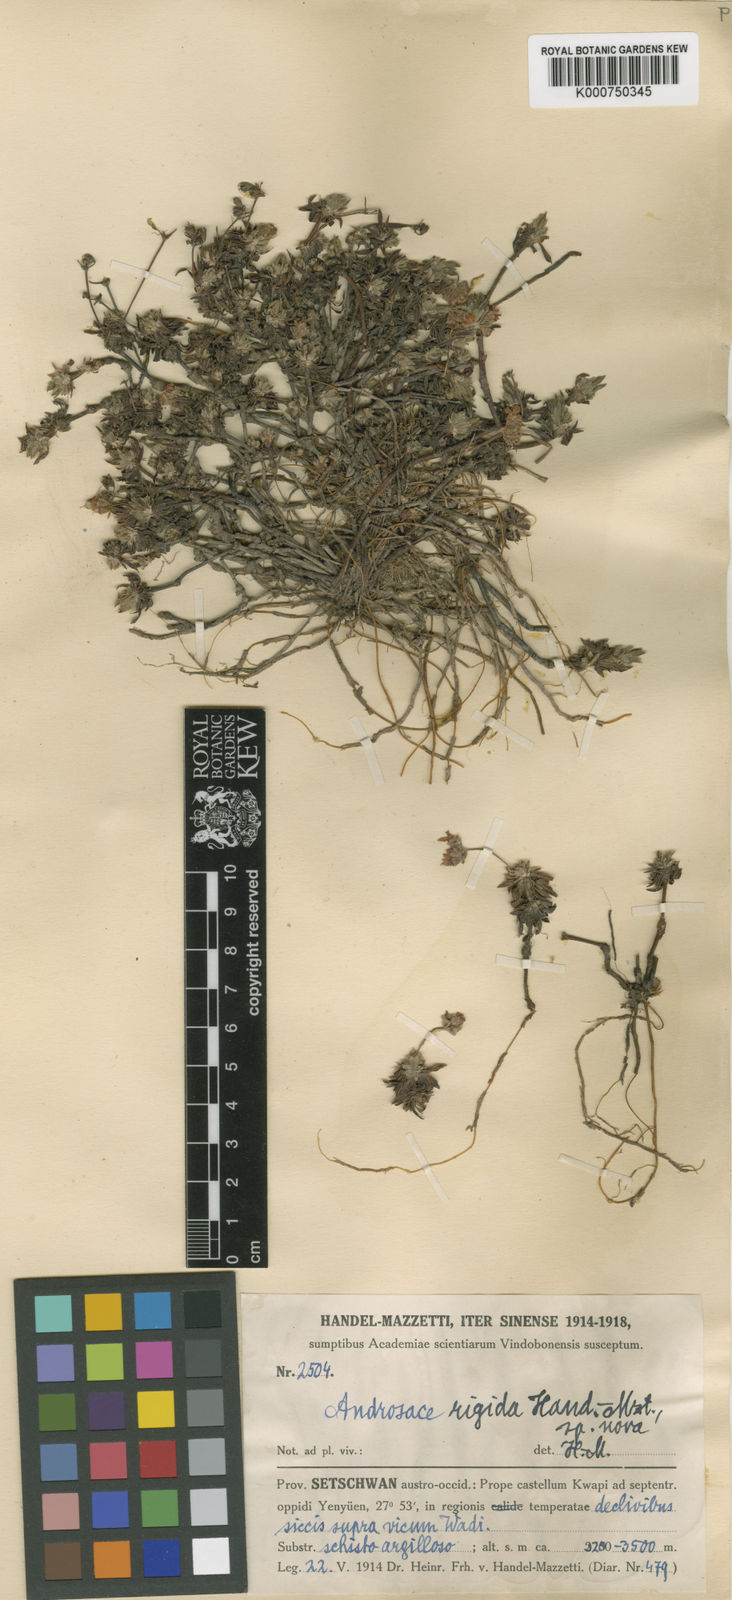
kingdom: Plantae
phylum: Tracheophyta
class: Magnoliopsida
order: Ericales
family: Primulaceae
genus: Androsace
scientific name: Androsace rigida
